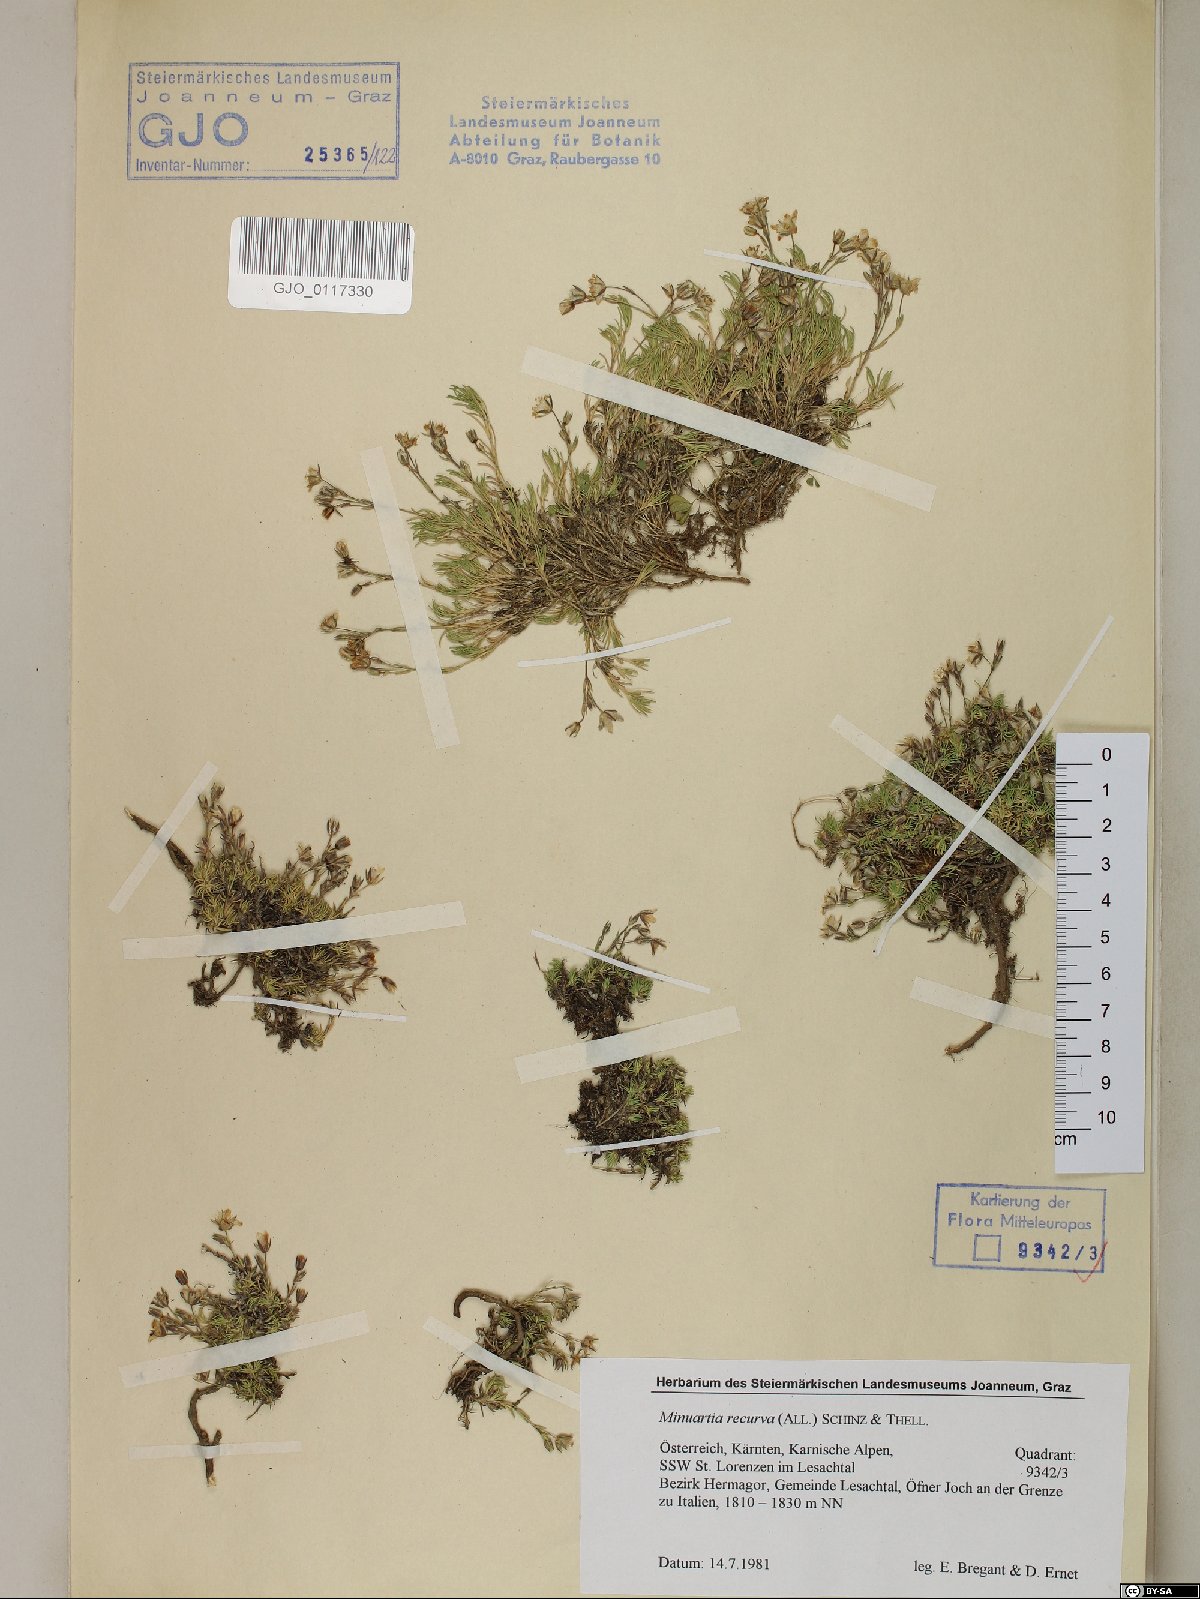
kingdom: Plantae
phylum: Tracheophyta
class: Magnoliopsida
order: Caryophyllales
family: Caryophyllaceae
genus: Minuartia
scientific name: Minuartia recurva
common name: Recurved sandwort
